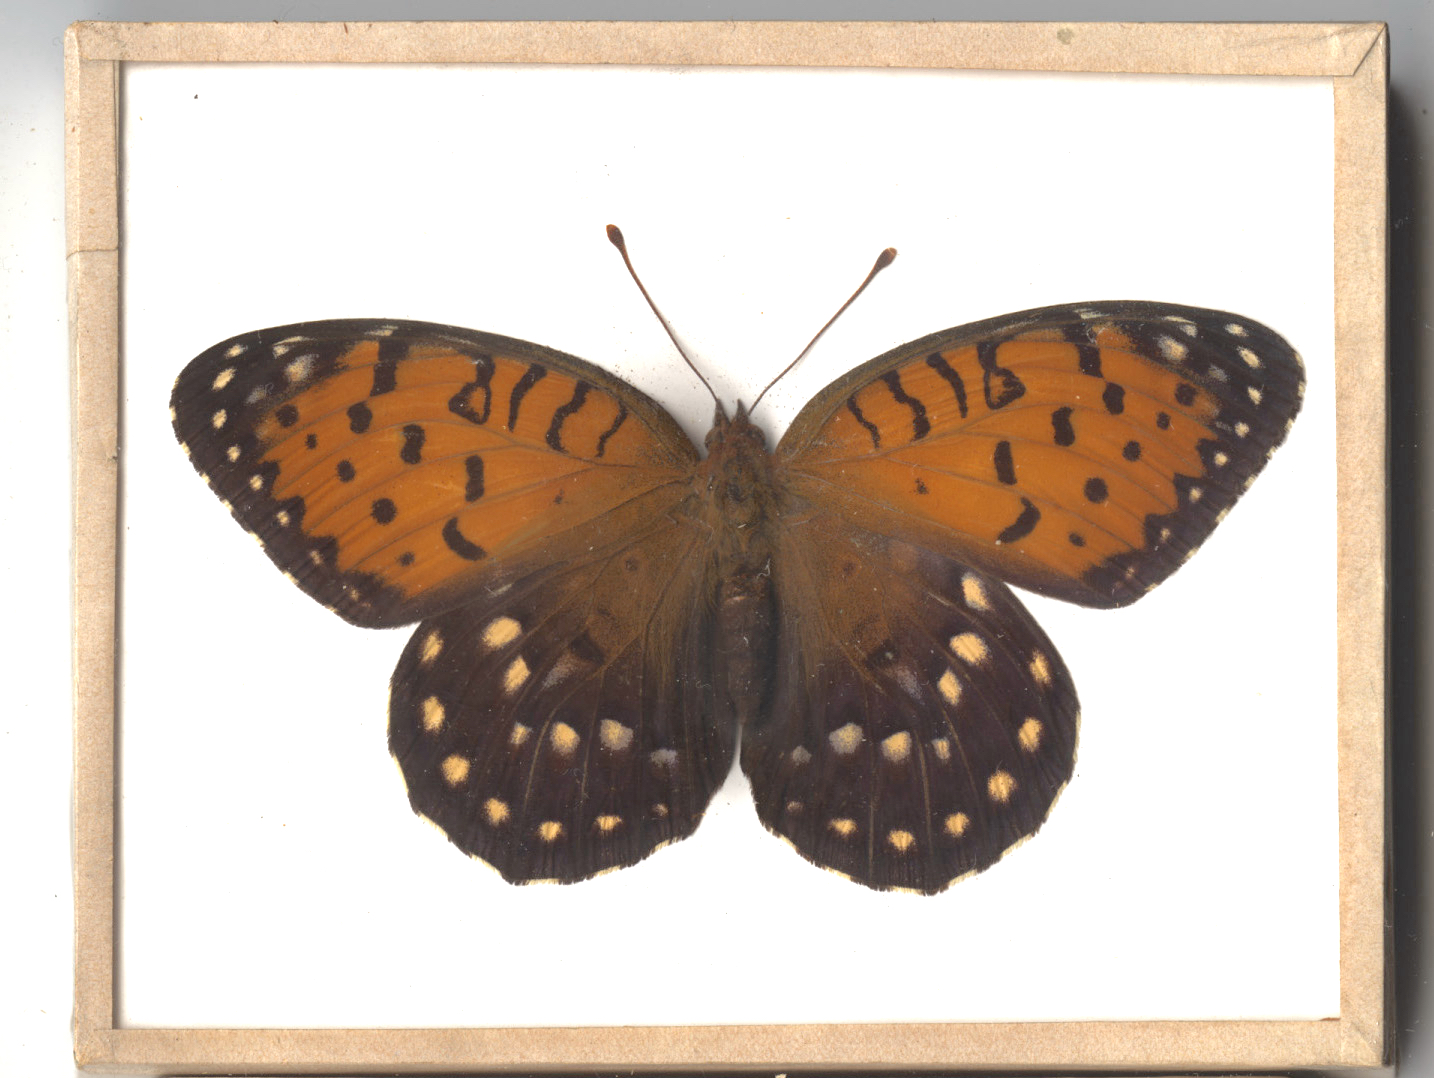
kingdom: Animalia
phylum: Arthropoda
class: Insecta
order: Lepidoptera
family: Nymphalidae
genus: Speyeria
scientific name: Speyeria idalia
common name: Regal Fritillary
